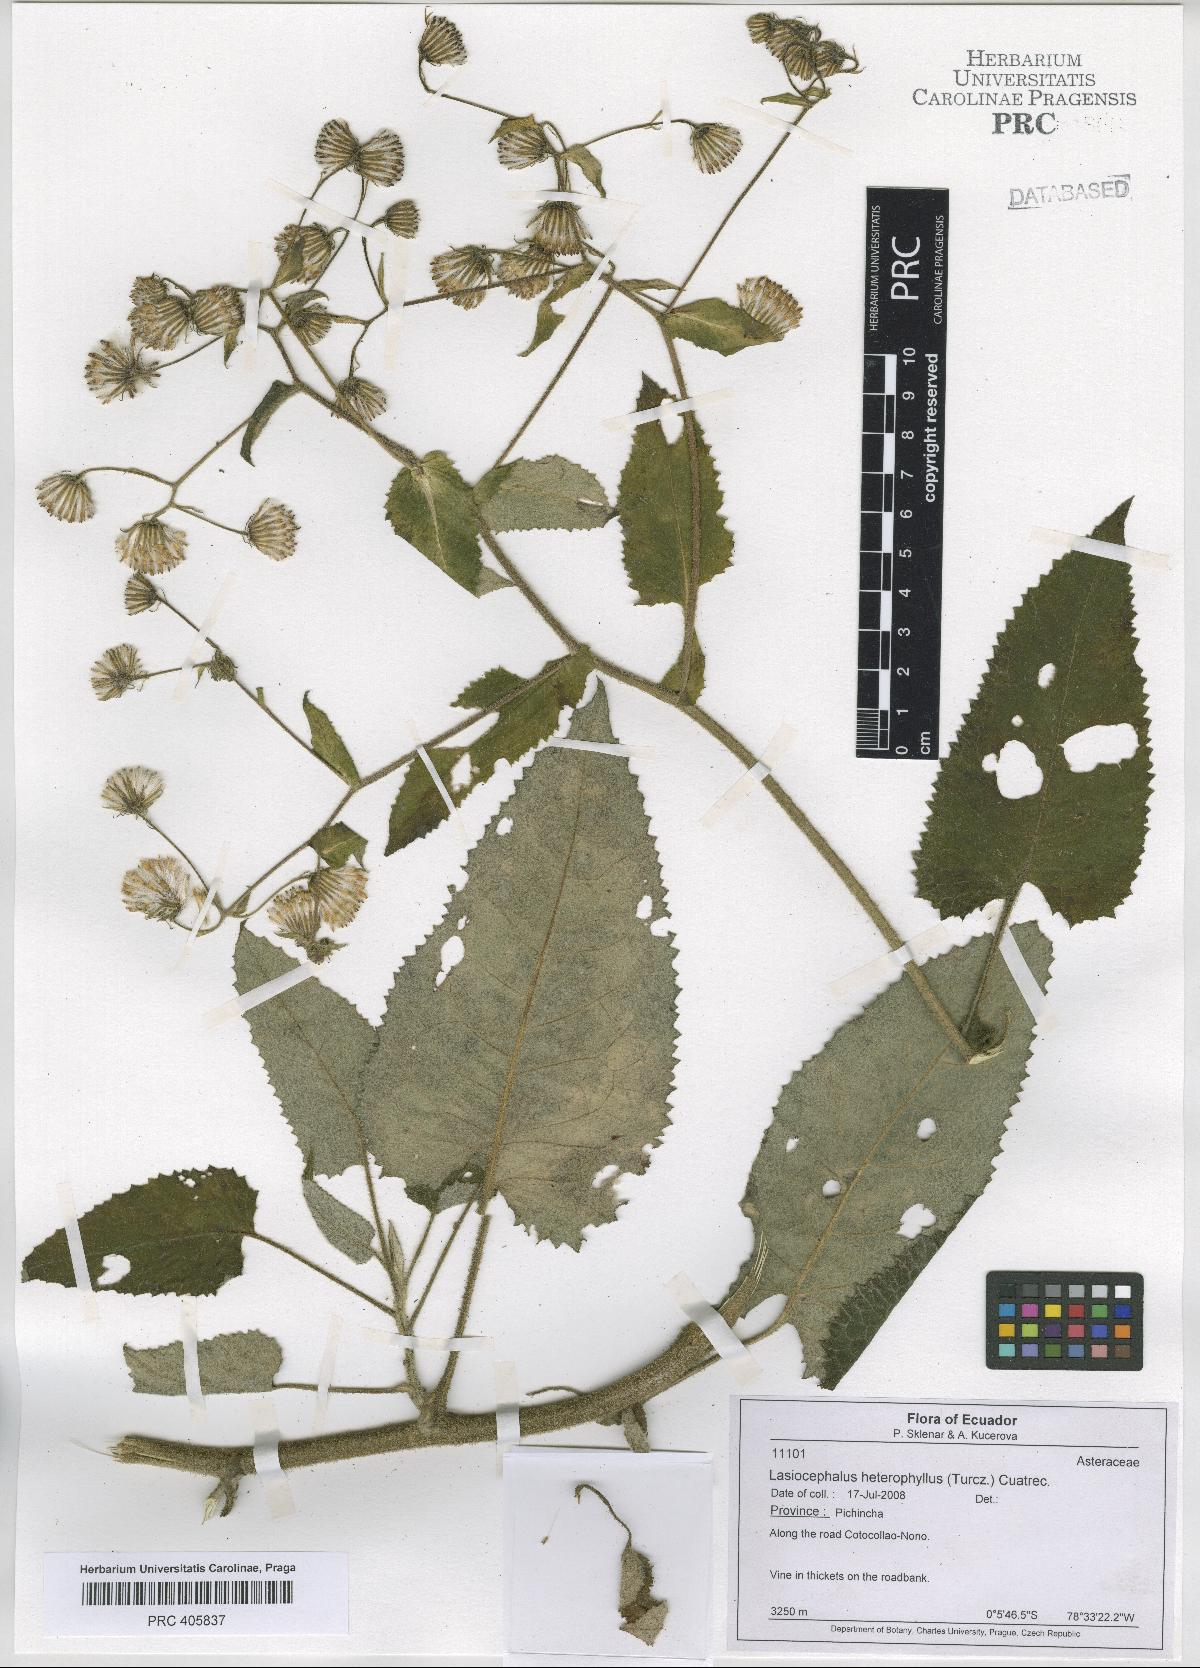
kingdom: Plantae
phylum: Tracheophyta
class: Magnoliopsida
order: Asterales
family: Asteraceae
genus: Aetheolaena
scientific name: Aetheolaena heterophylla
